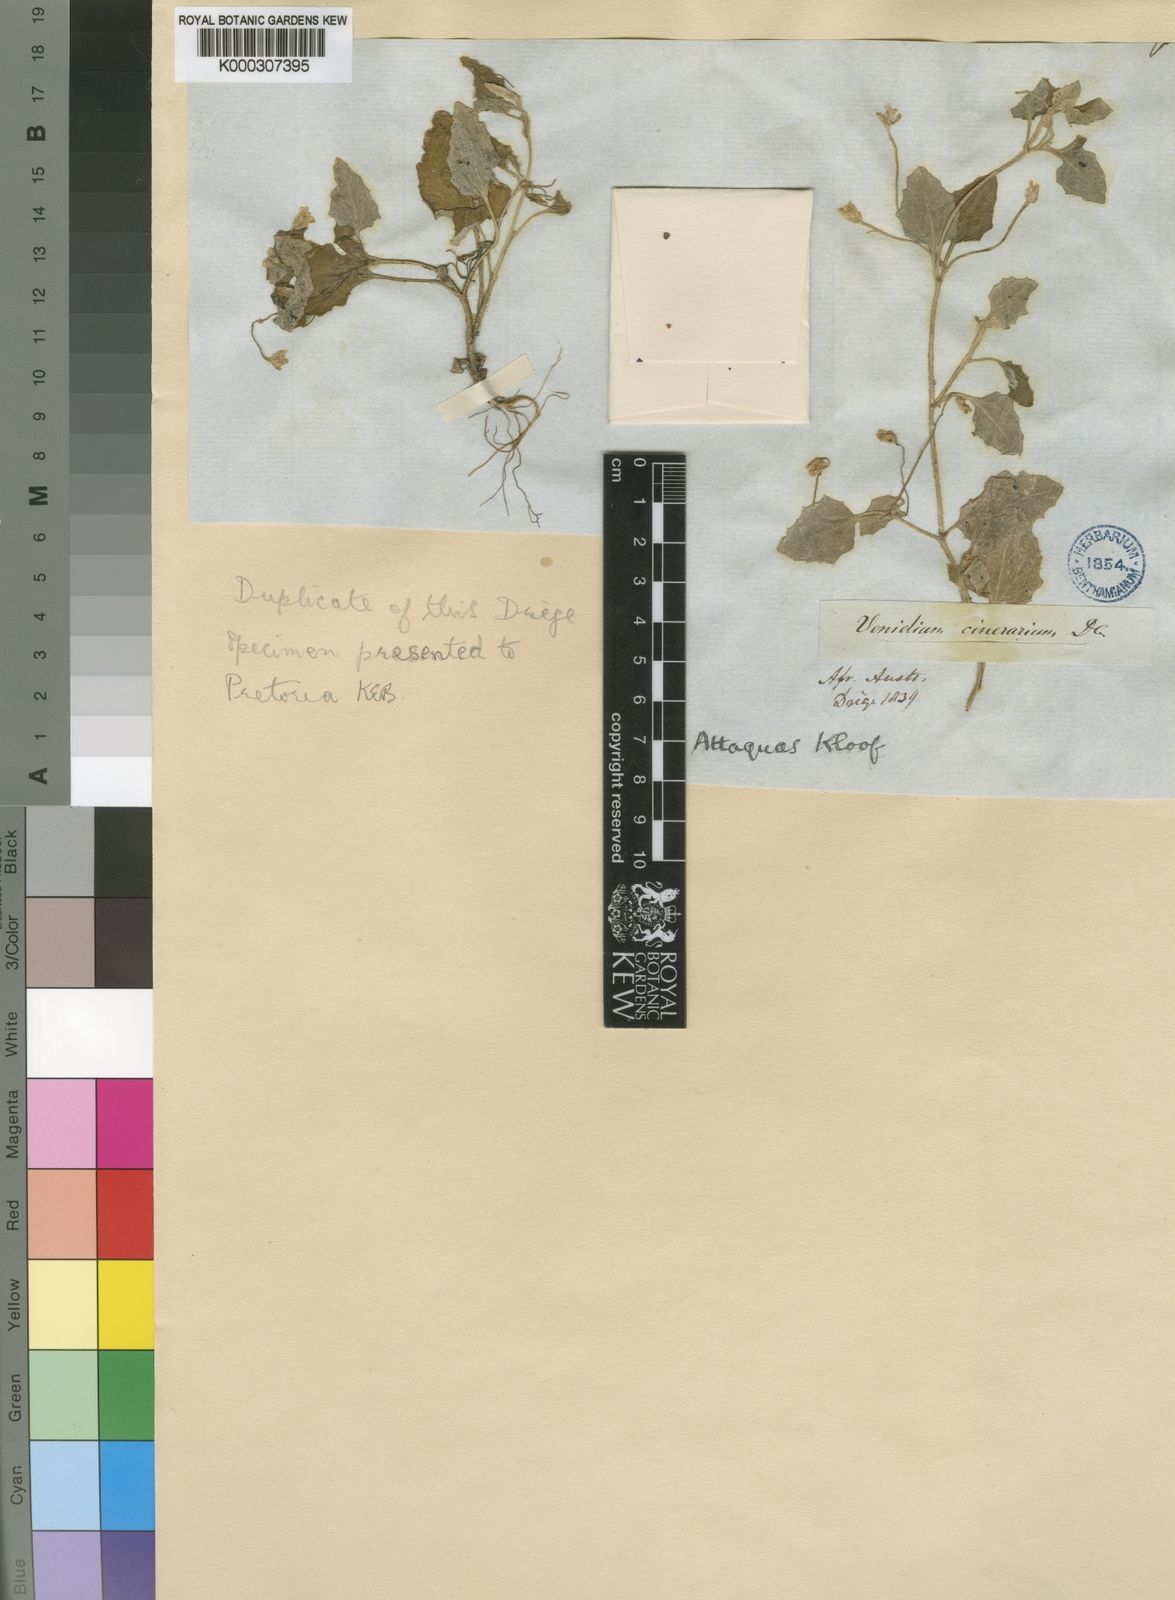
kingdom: Plantae
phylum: Tracheophyta
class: Magnoliopsida
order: Asterales
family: Asteraceae
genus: Arctotis
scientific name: Arctotis perfoliata
